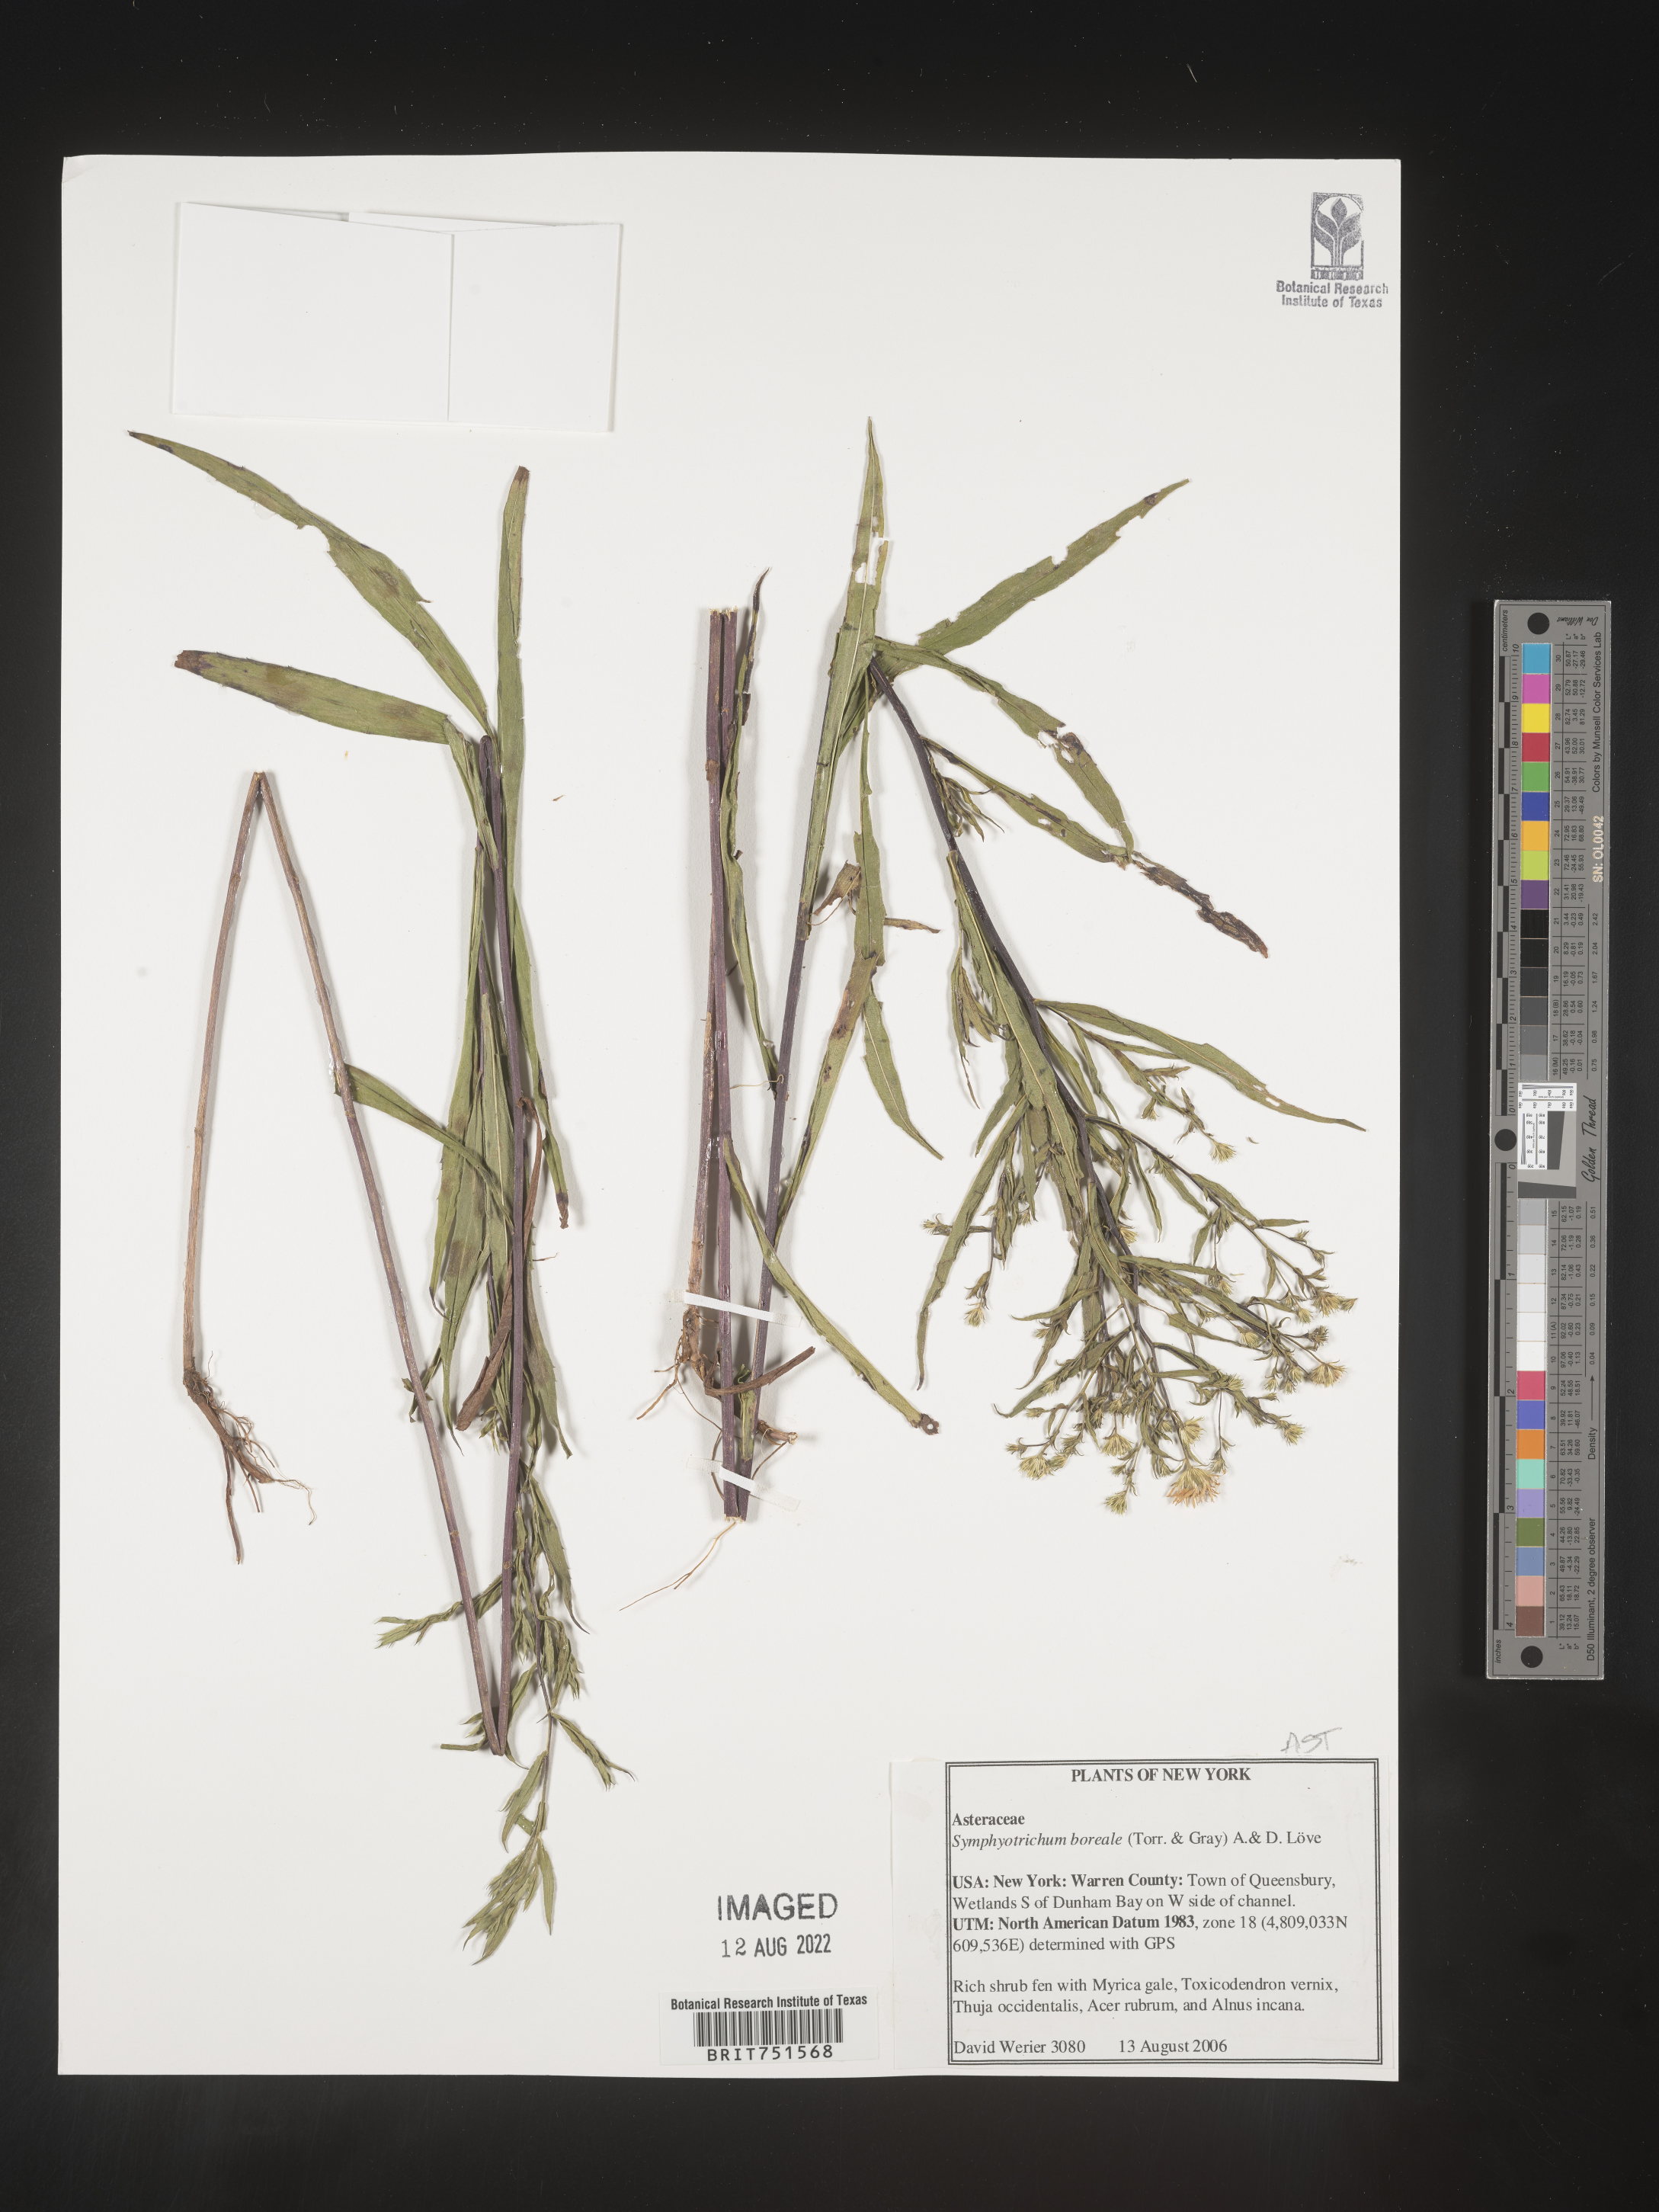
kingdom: Plantae
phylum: Tracheophyta
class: Magnoliopsida
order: Asterales
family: Asteraceae
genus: Symphyotrichum
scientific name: Symphyotrichum boreale
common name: Northern bog aster
